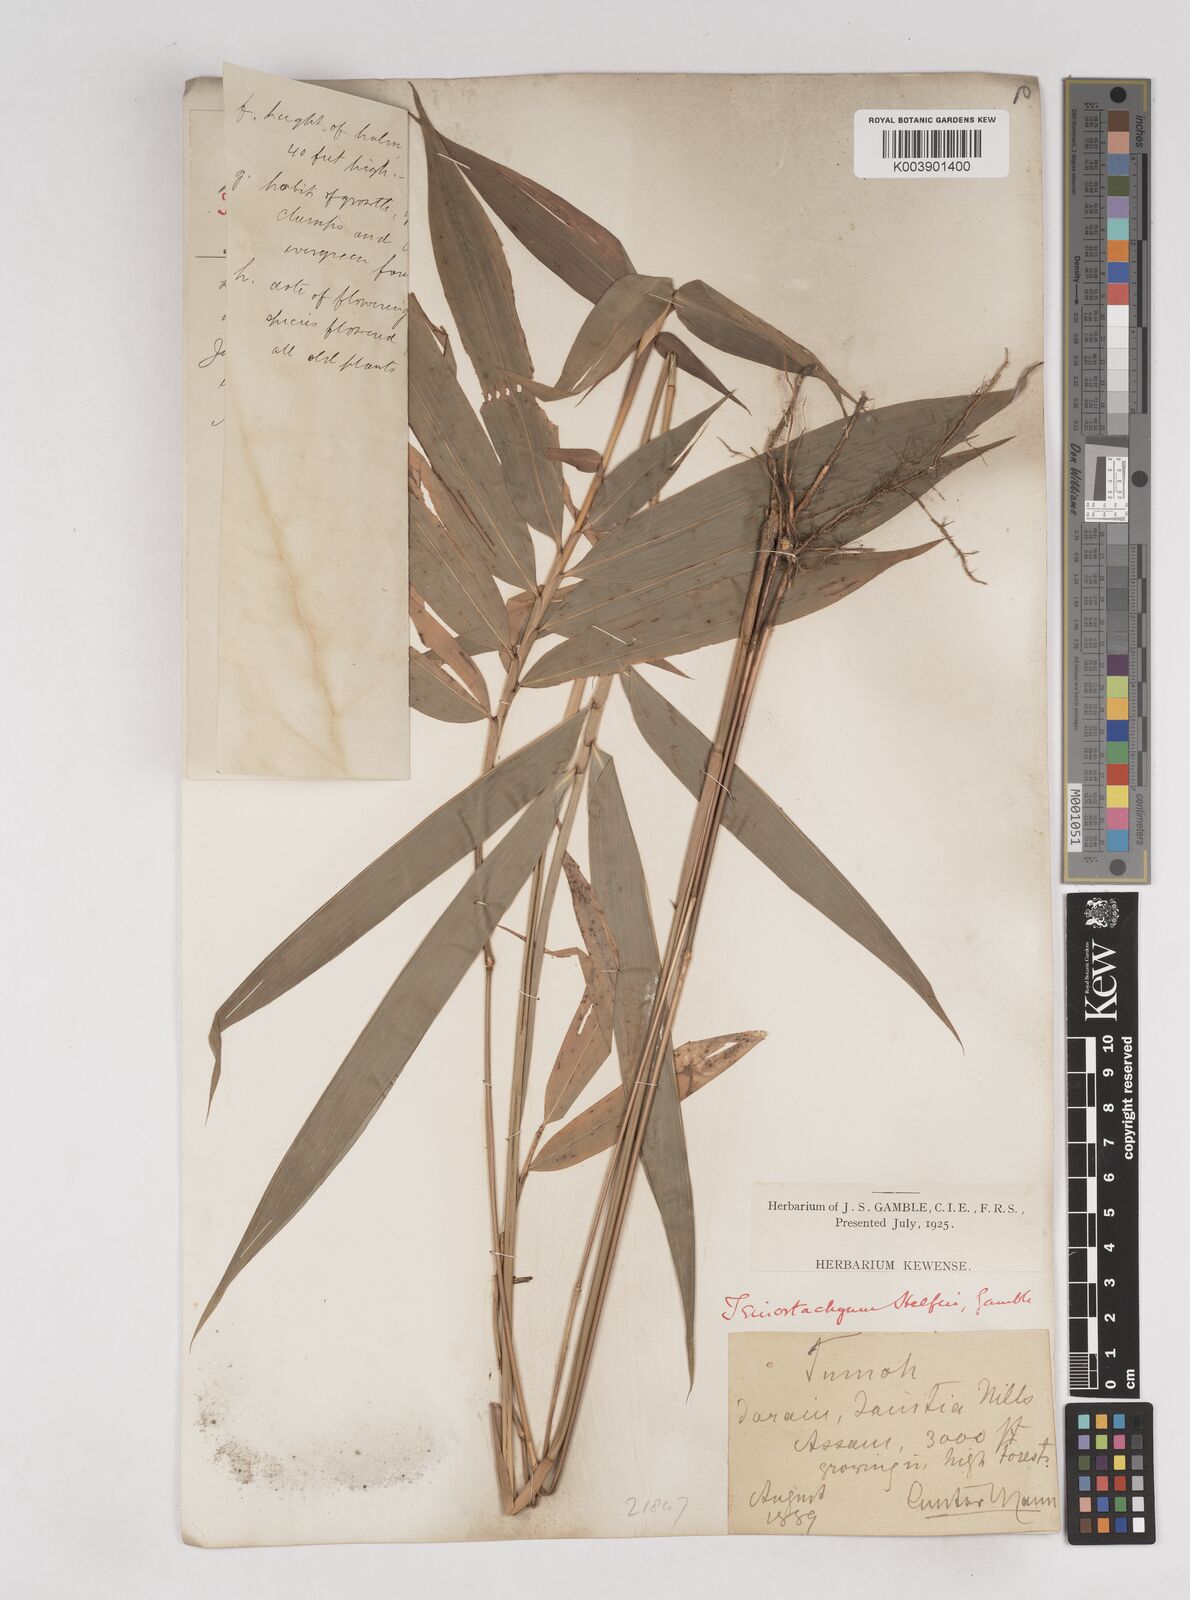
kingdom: Plantae
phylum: Tracheophyta
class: Liliopsida
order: Poales
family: Poaceae
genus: Schizostachyum
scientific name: Schizostachyum helferi
